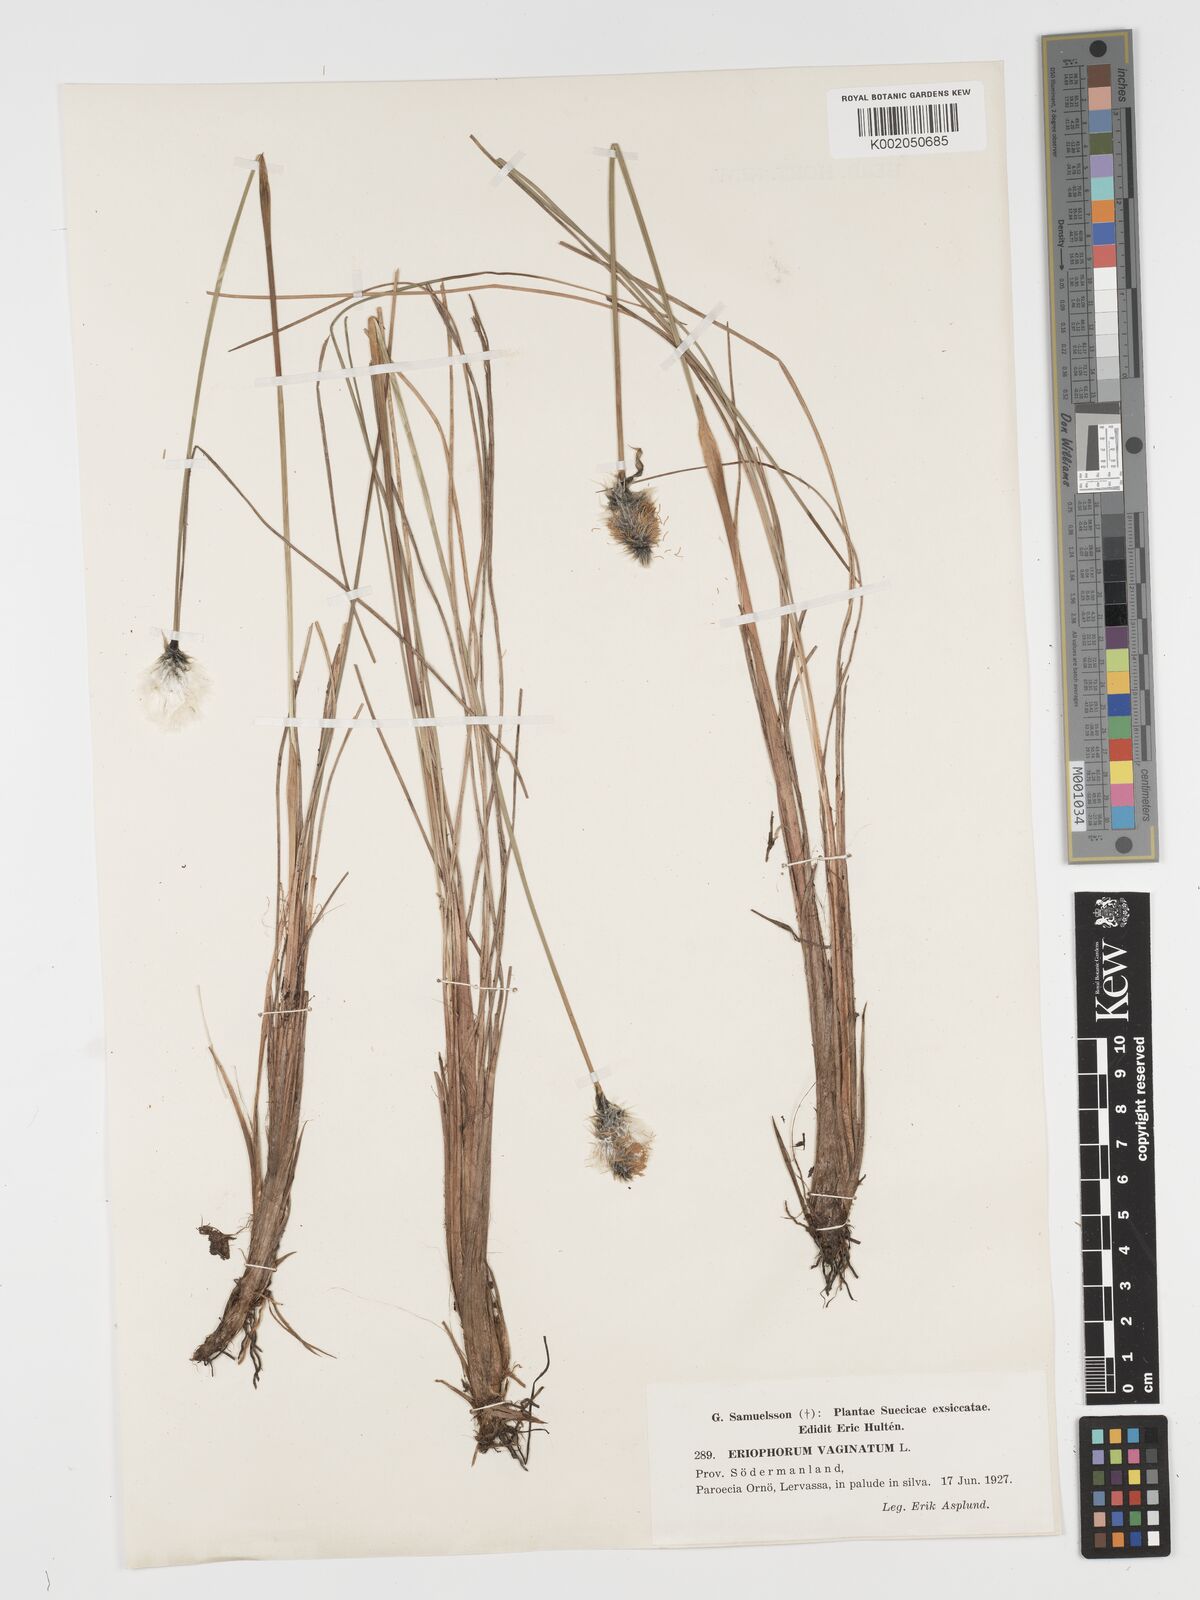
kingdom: Plantae
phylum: Tracheophyta
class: Liliopsida
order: Poales
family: Cyperaceae
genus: Eriophorum
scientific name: Eriophorum vaginatum
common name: Hare's-tail cottongrass
